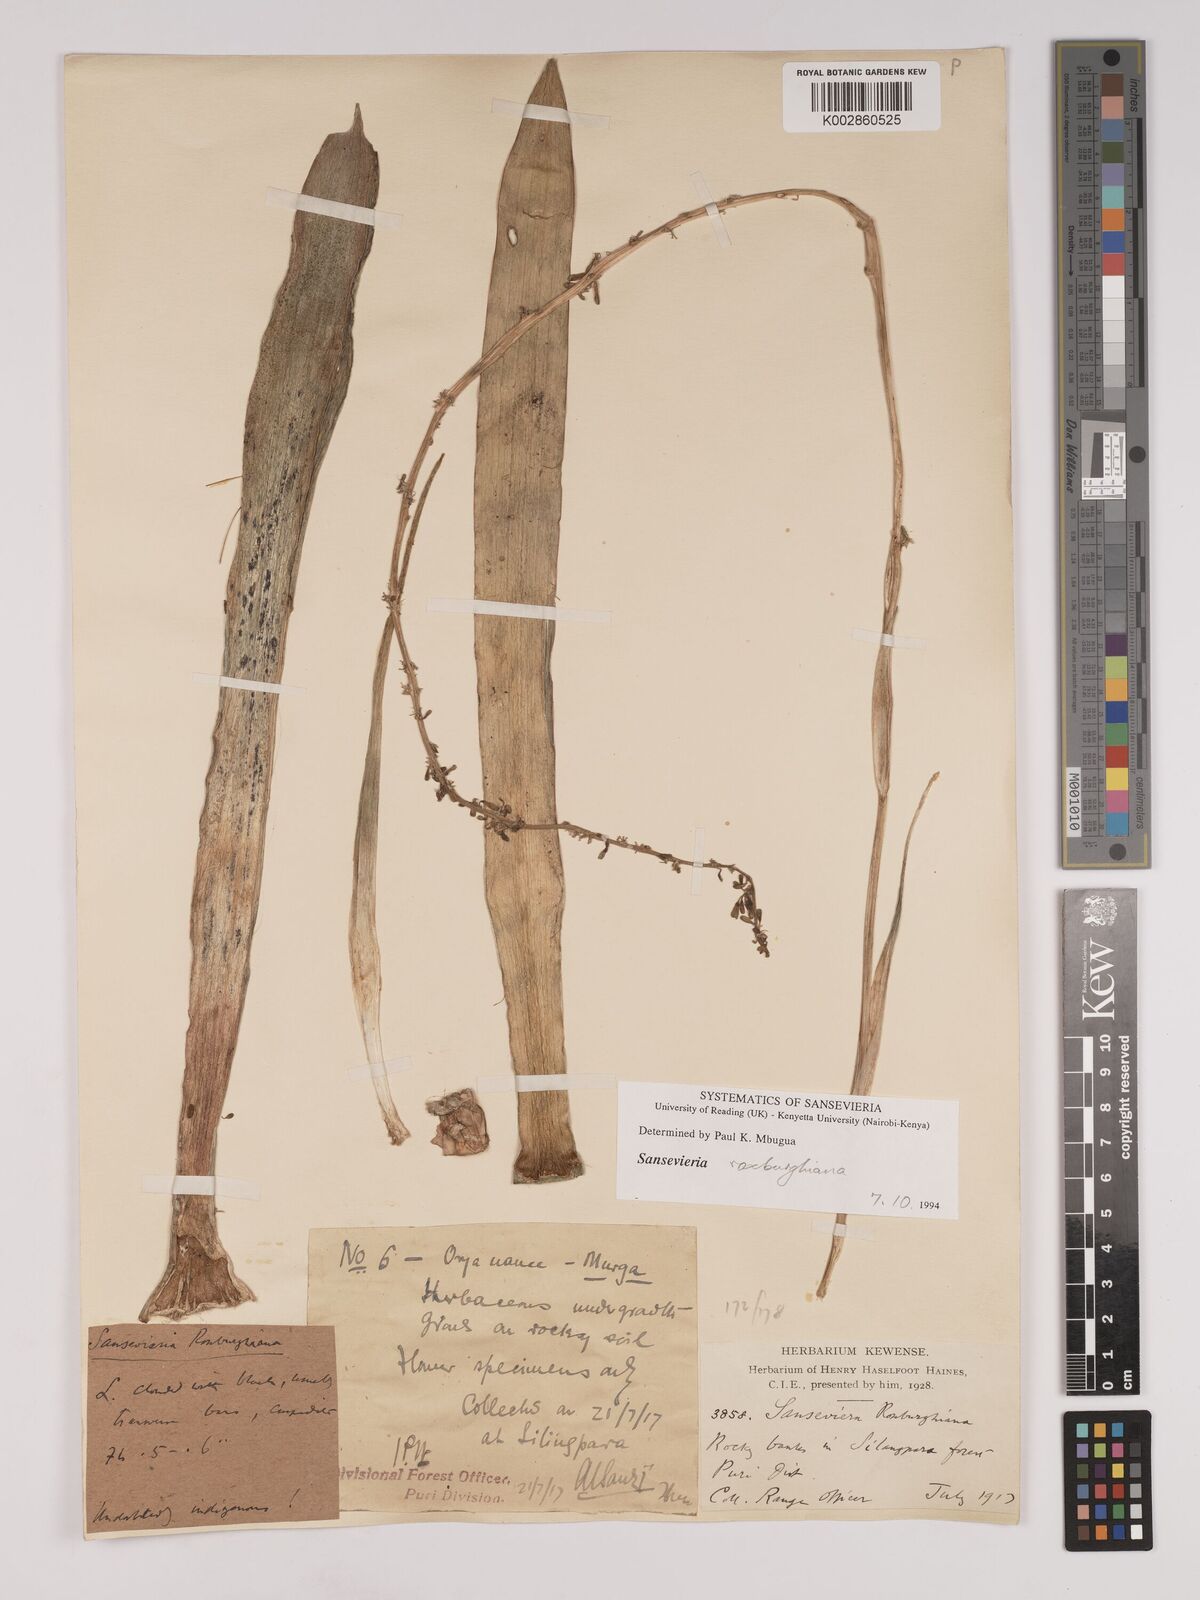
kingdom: Plantae
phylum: Tracheophyta
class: Liliopsida
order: Asparagales
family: Asparagaceae
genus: Dracaena
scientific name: Dracaena roxburghiana
